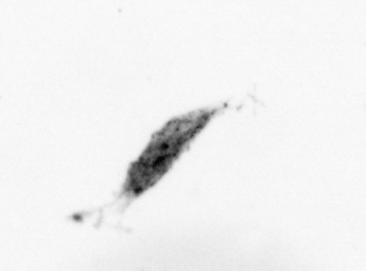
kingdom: Animalia
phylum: Arthropoda
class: Copepoda
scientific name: Copepoda
